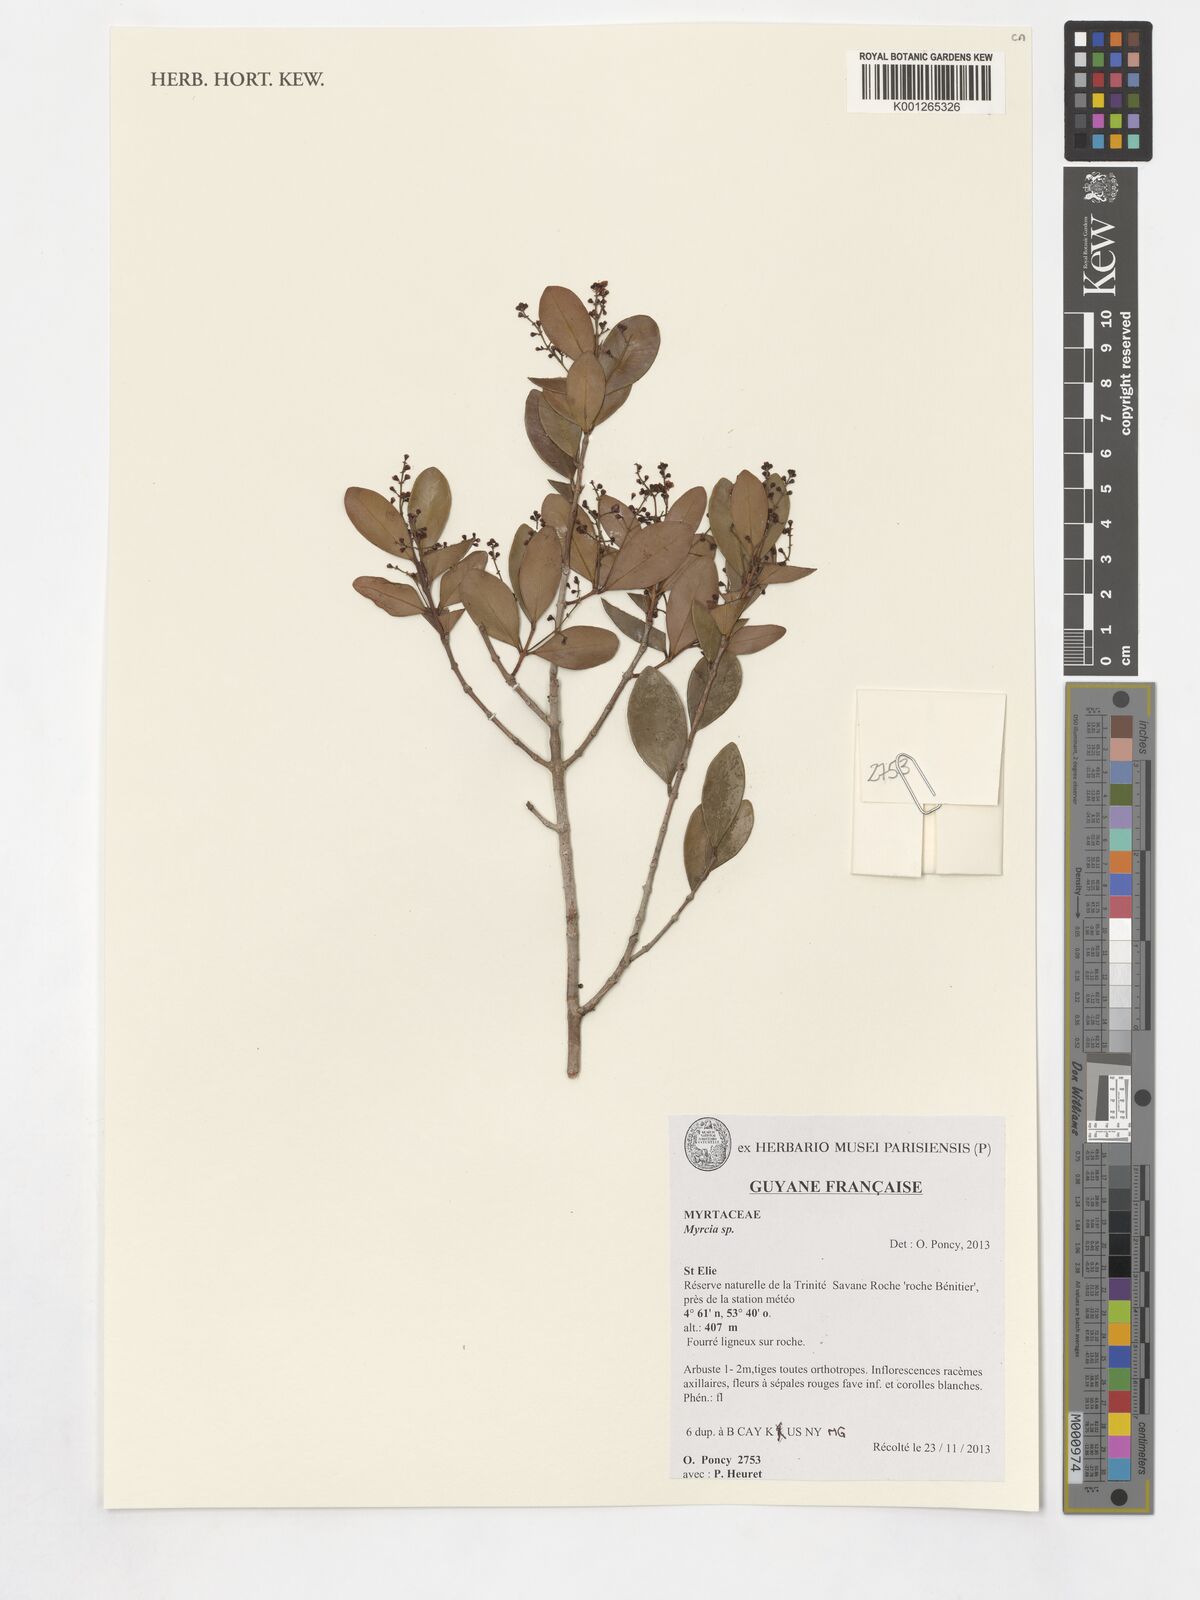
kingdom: Plantae
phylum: Tracheophyta
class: Magnoliopsida
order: Myrtales
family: Myrtaceae
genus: Myrcia
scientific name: Myrcia
